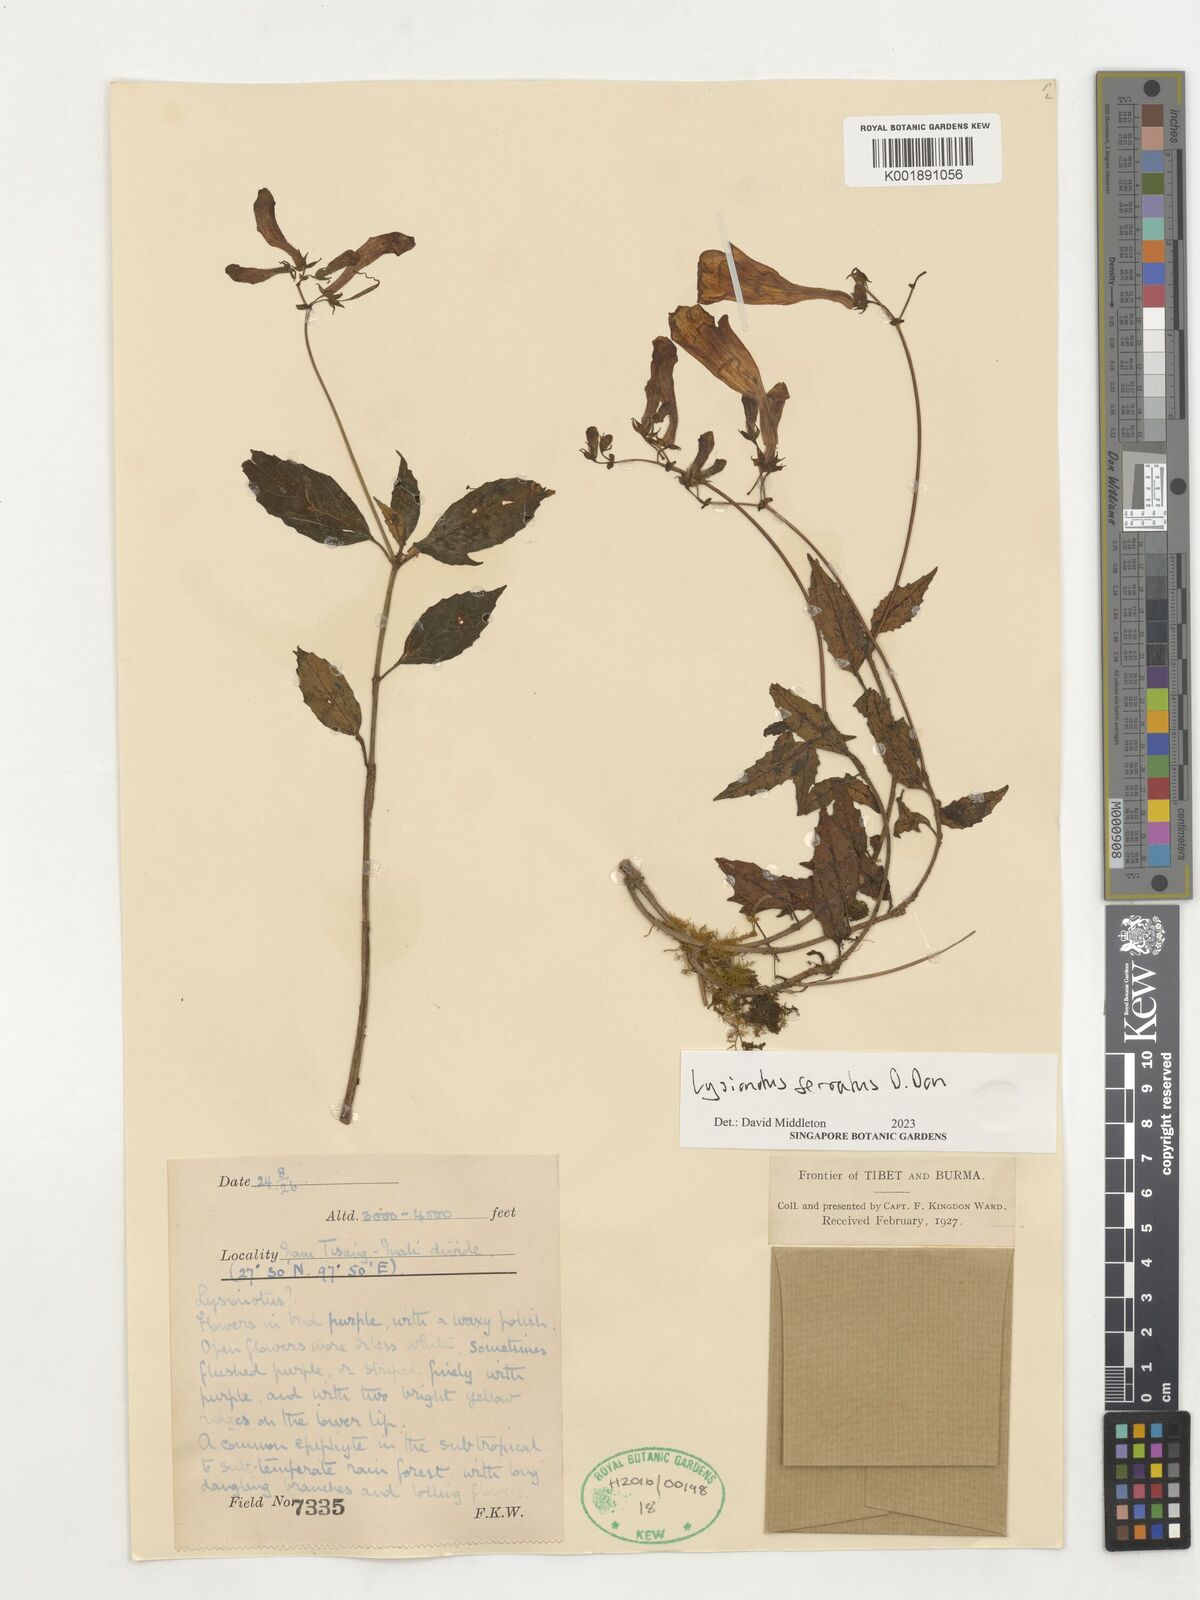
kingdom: Plantae
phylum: Tracheophyta
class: Magnoliopsida
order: Lamiales
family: Gesneriaceae
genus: Lysionotus
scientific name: Lysionotus serratus
